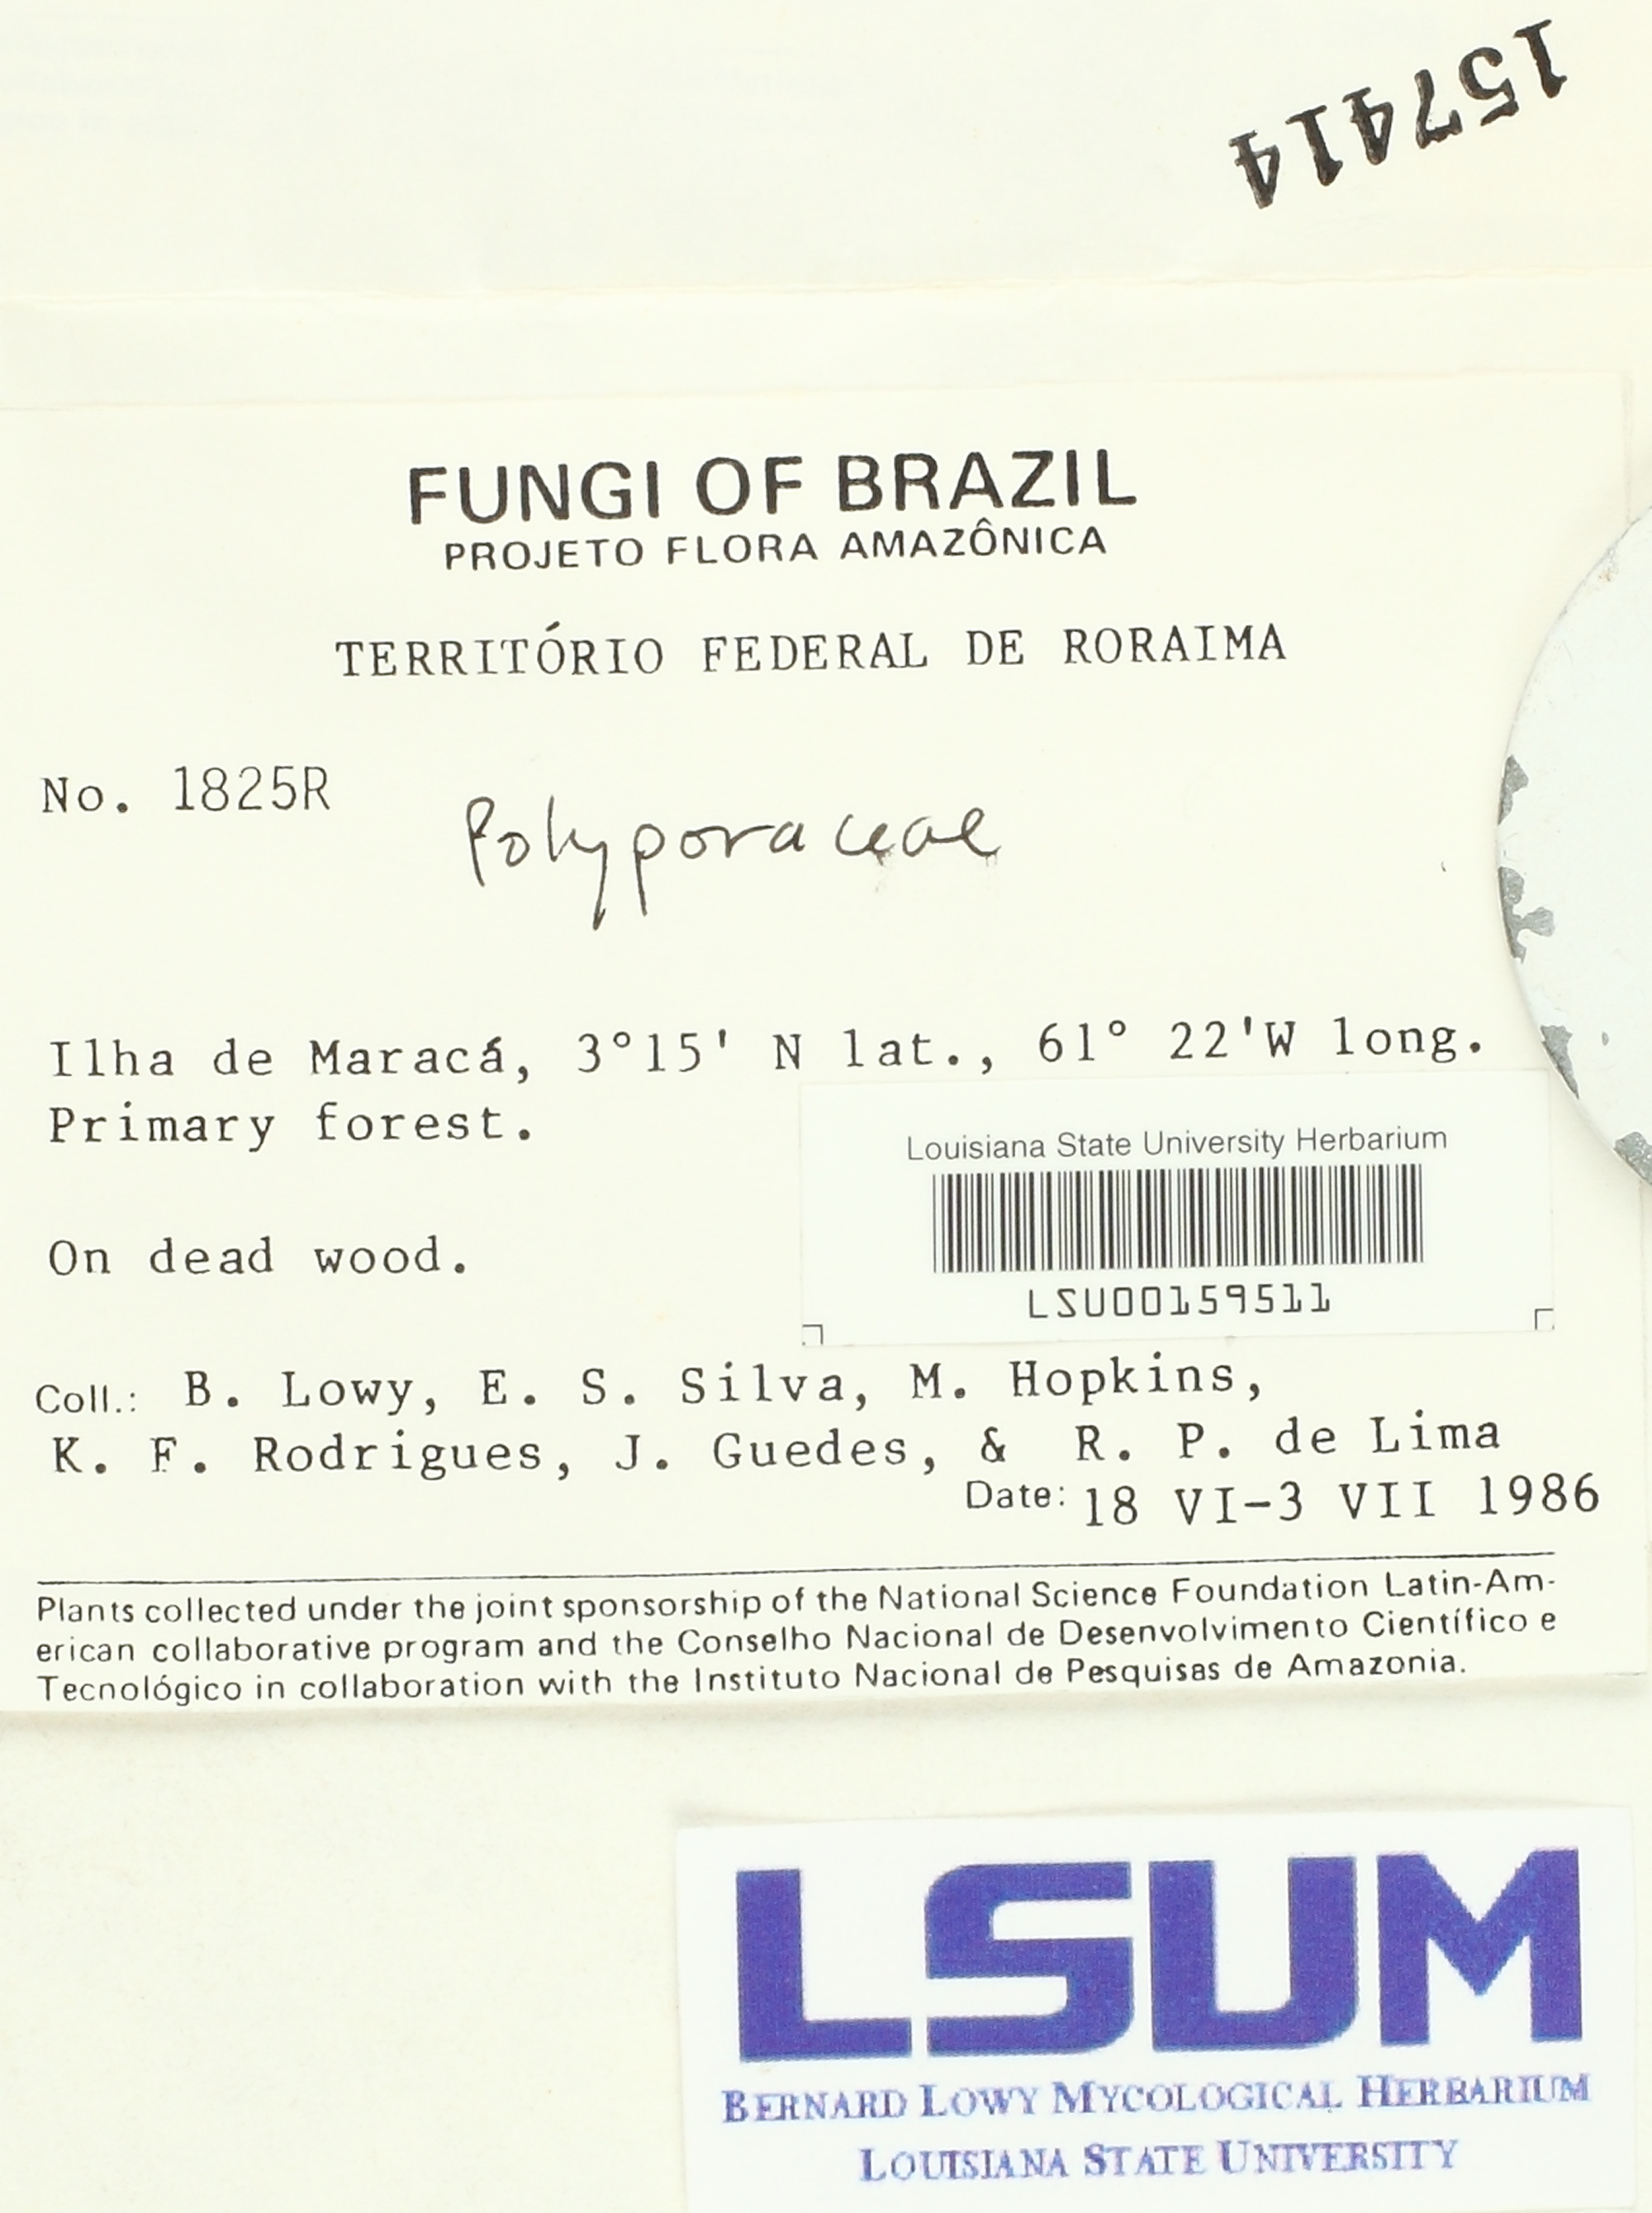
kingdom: Fungi
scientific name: Fungi
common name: Fungi
